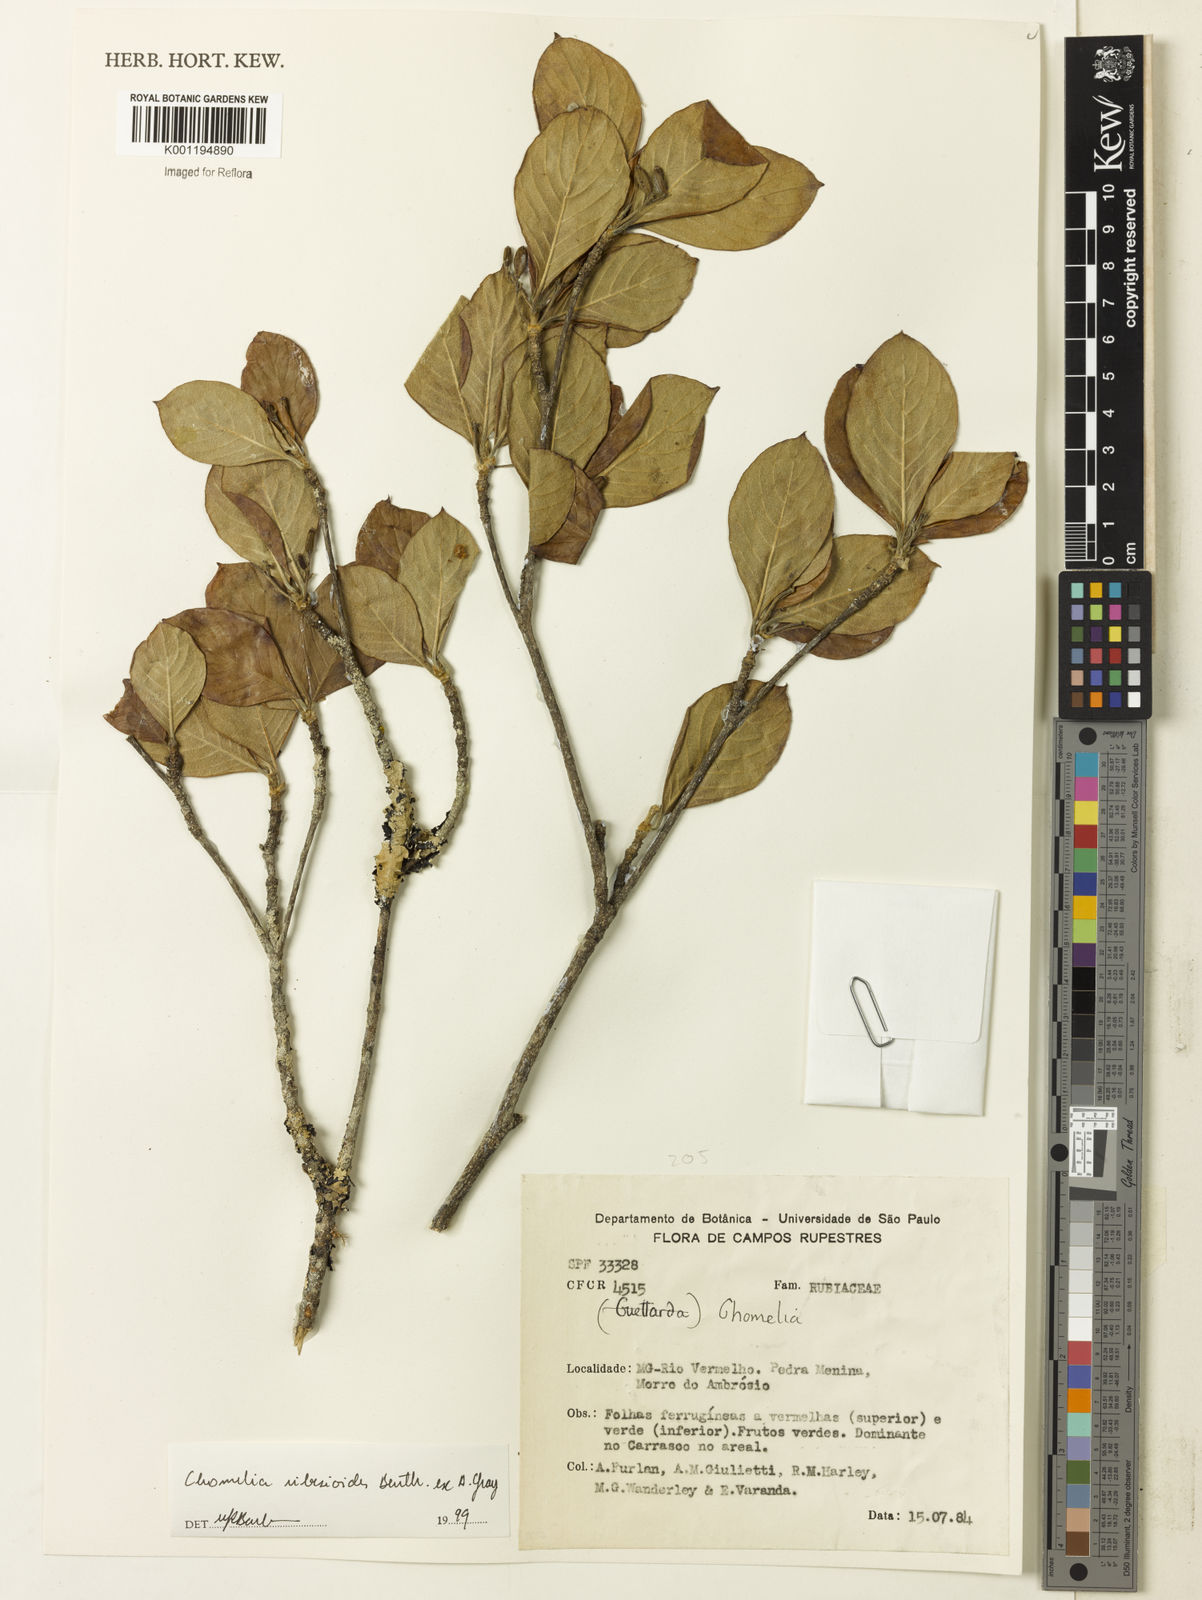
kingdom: Plantae
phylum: Tracheophyta
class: Magnoliopsida
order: Gentianales
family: Rubiaceae
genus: Chomelia
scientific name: Chomelia ribesioides
